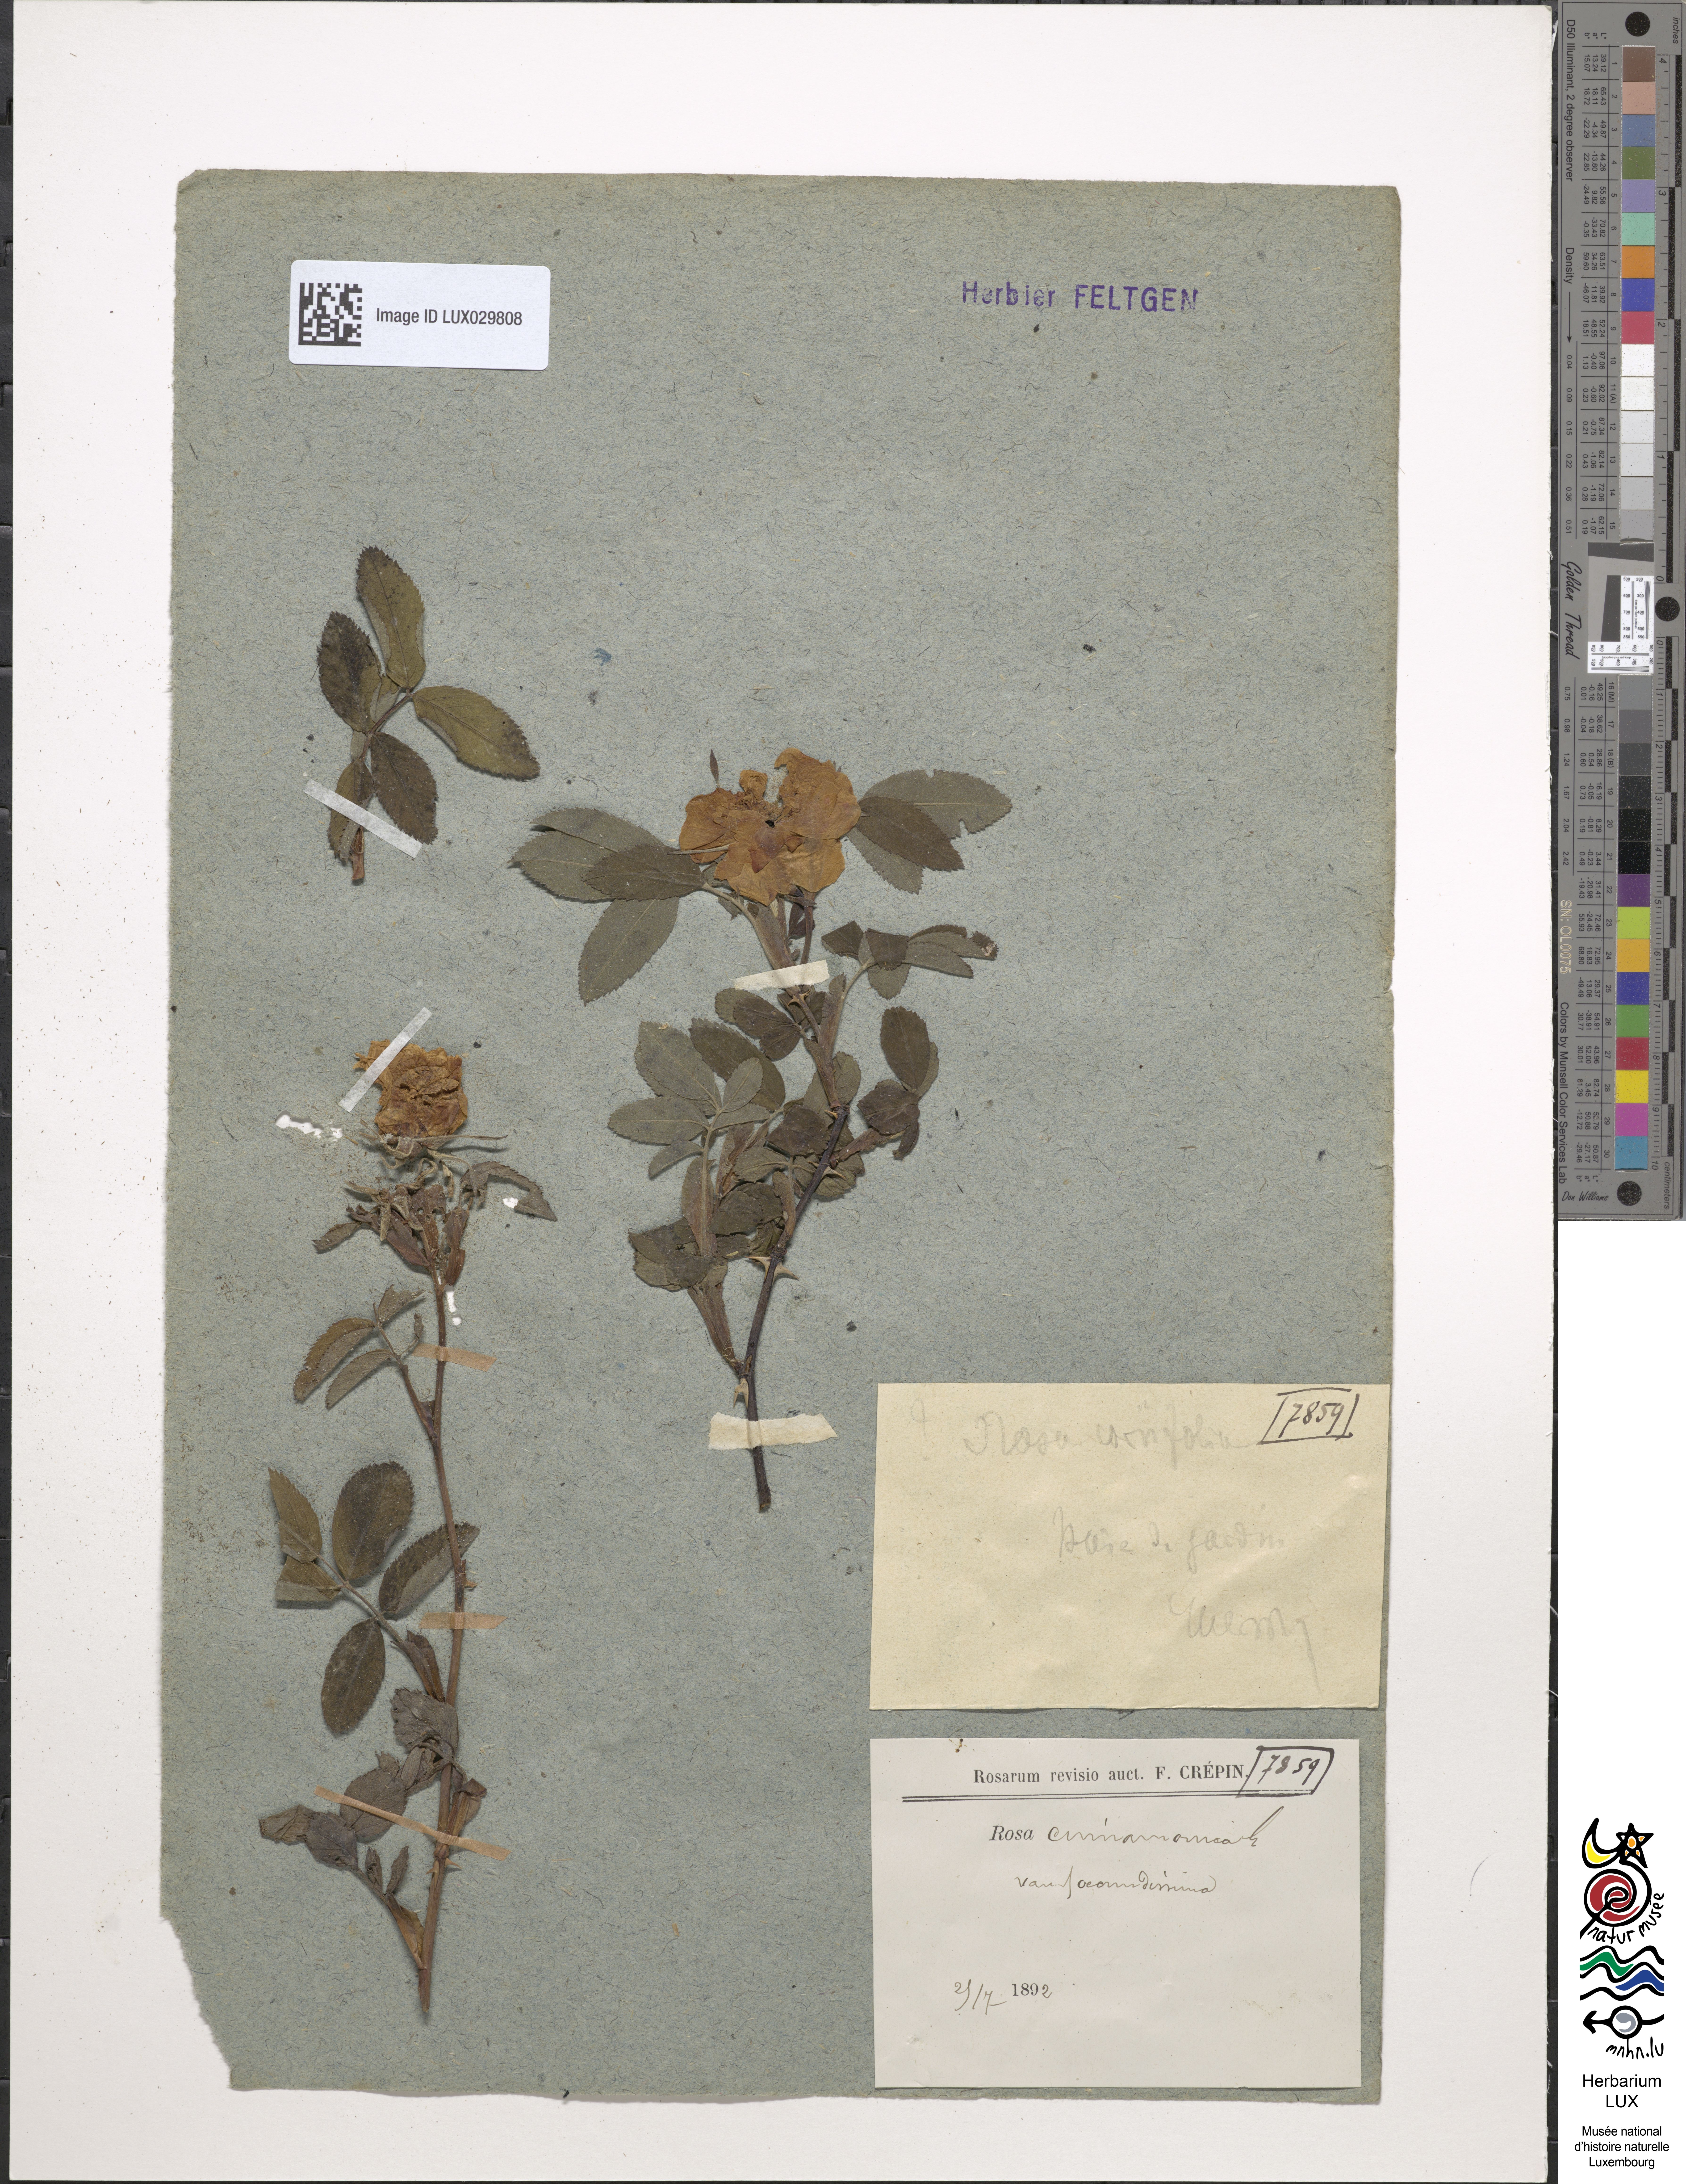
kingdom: Plantae
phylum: Tracheophyta
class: Magnoliopsida
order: Rosales
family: Rosaceae
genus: Rosa
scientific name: Rosa majalis
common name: Cinnamon rose
